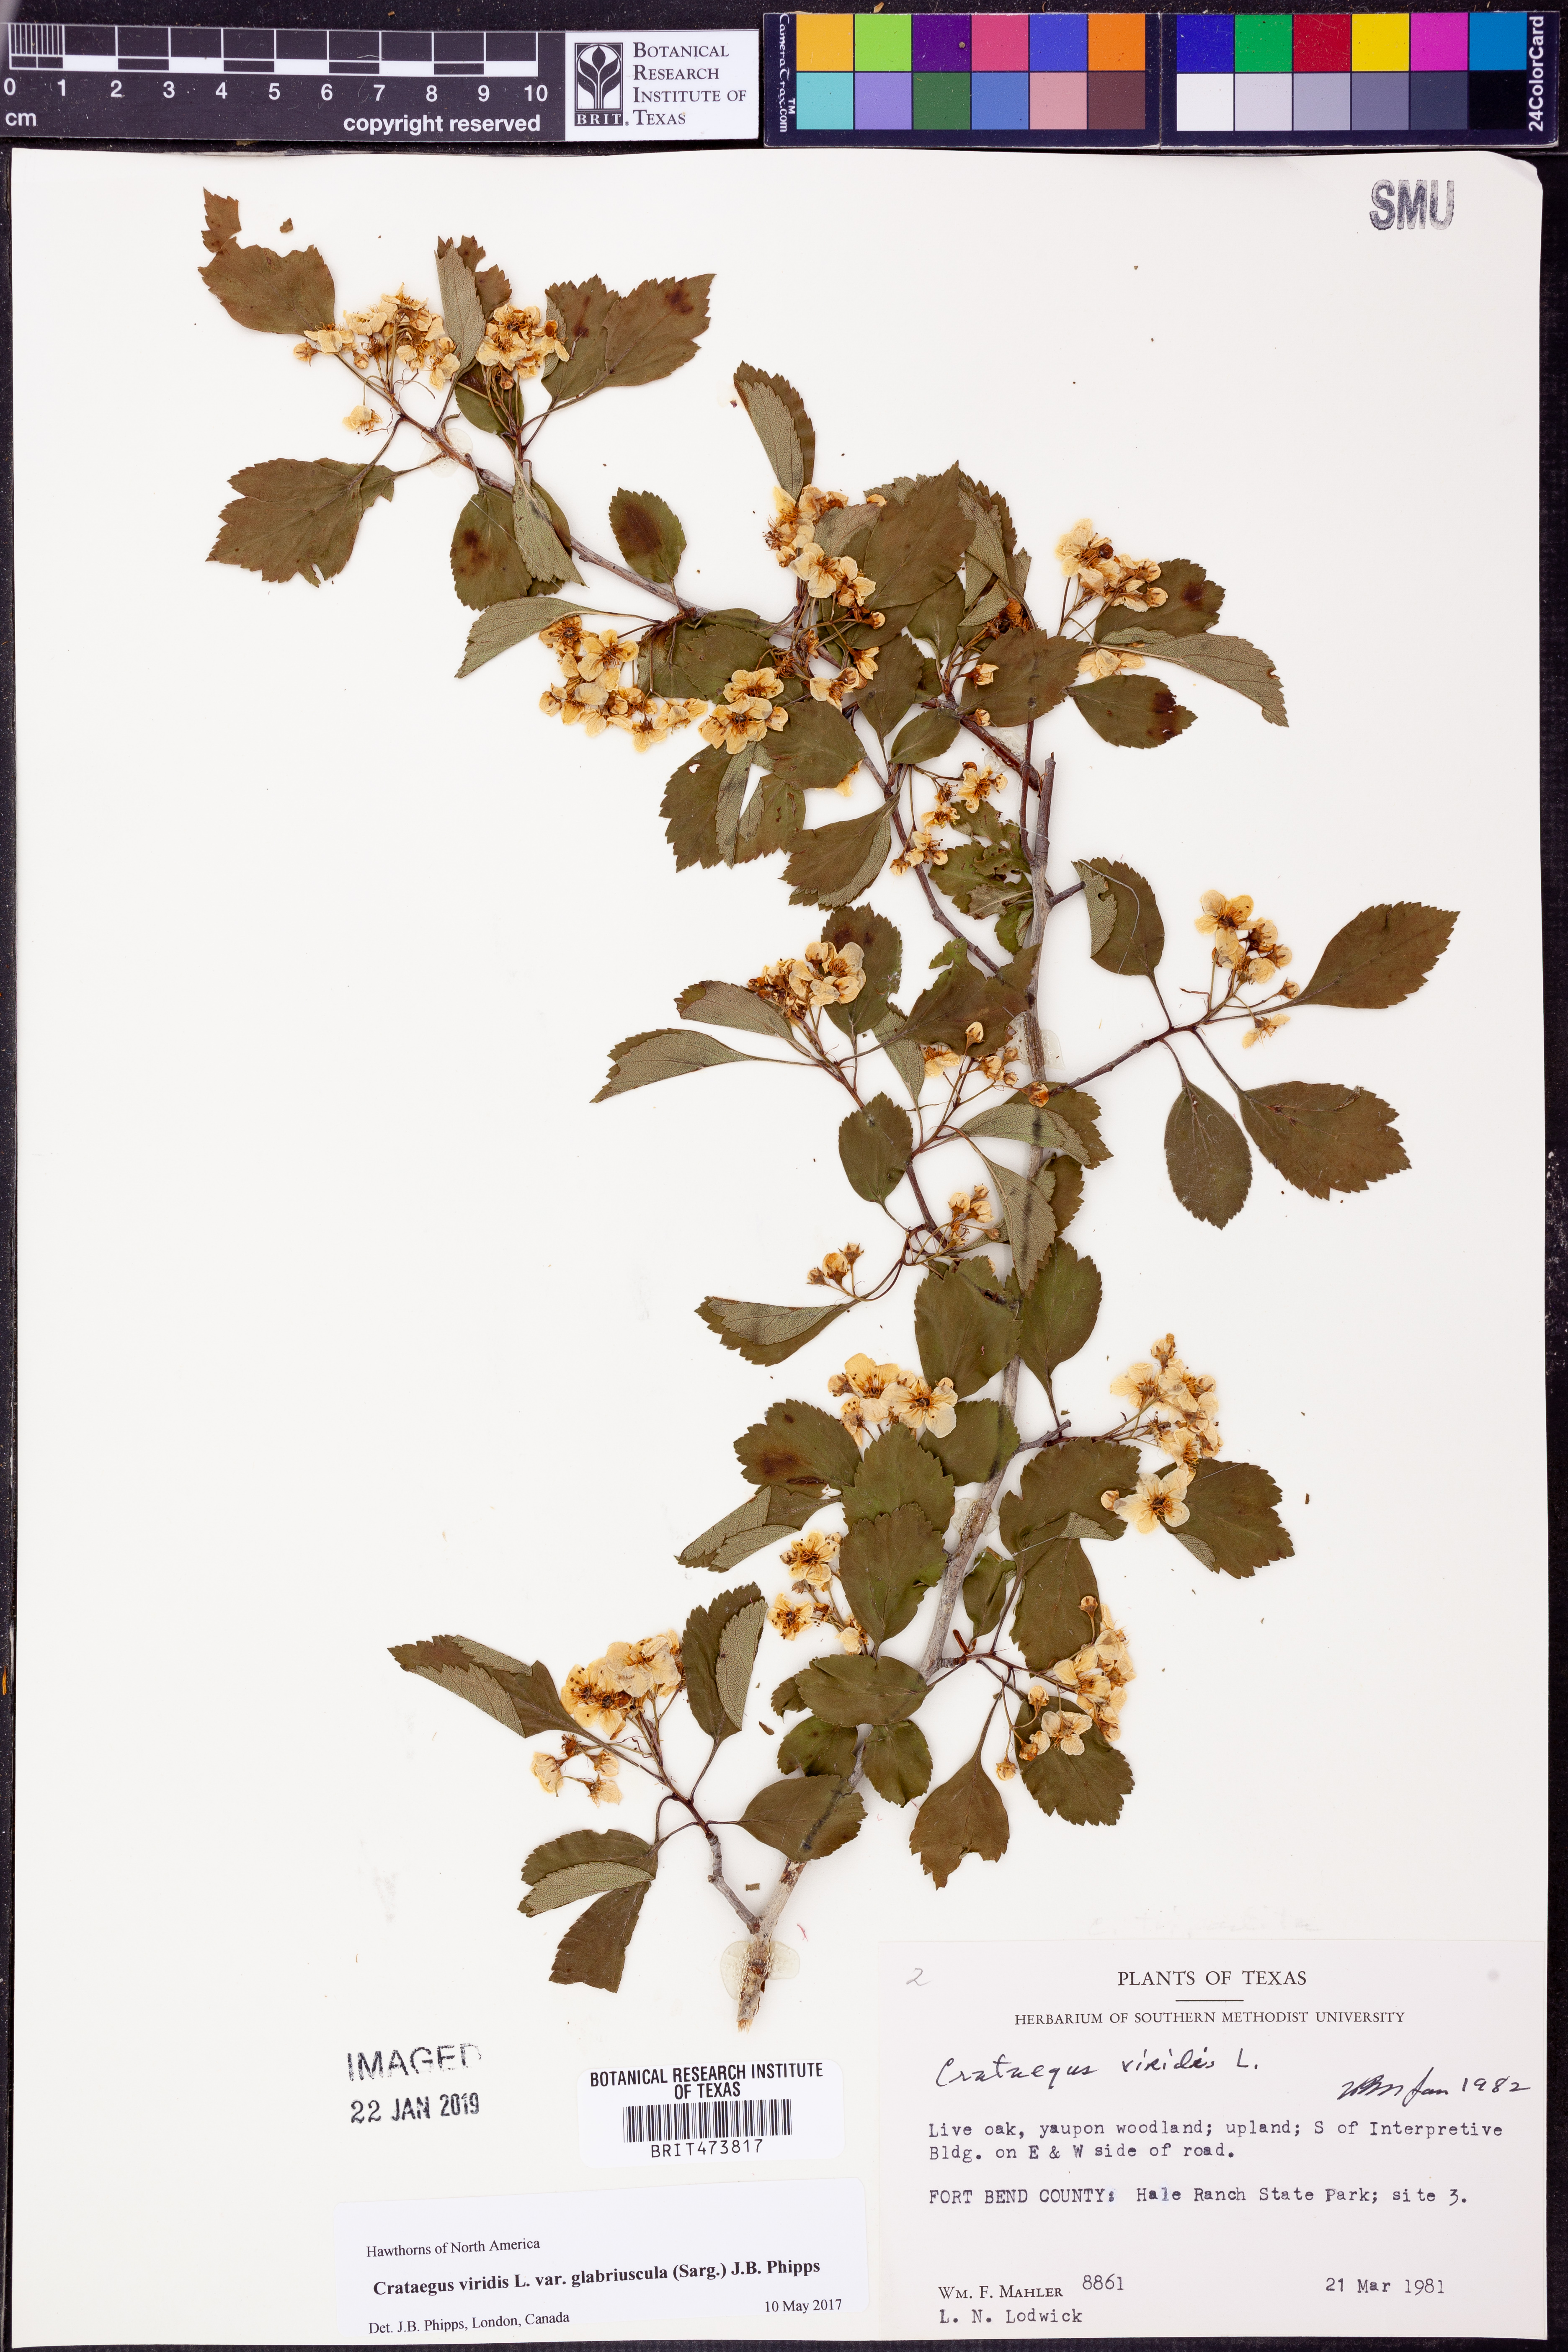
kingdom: Plantae
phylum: Tracheophyta
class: Magnoliopsida
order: Rosales
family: Rosaceae
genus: Crataegus
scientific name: Crataegus viridis
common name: Southernthorn
